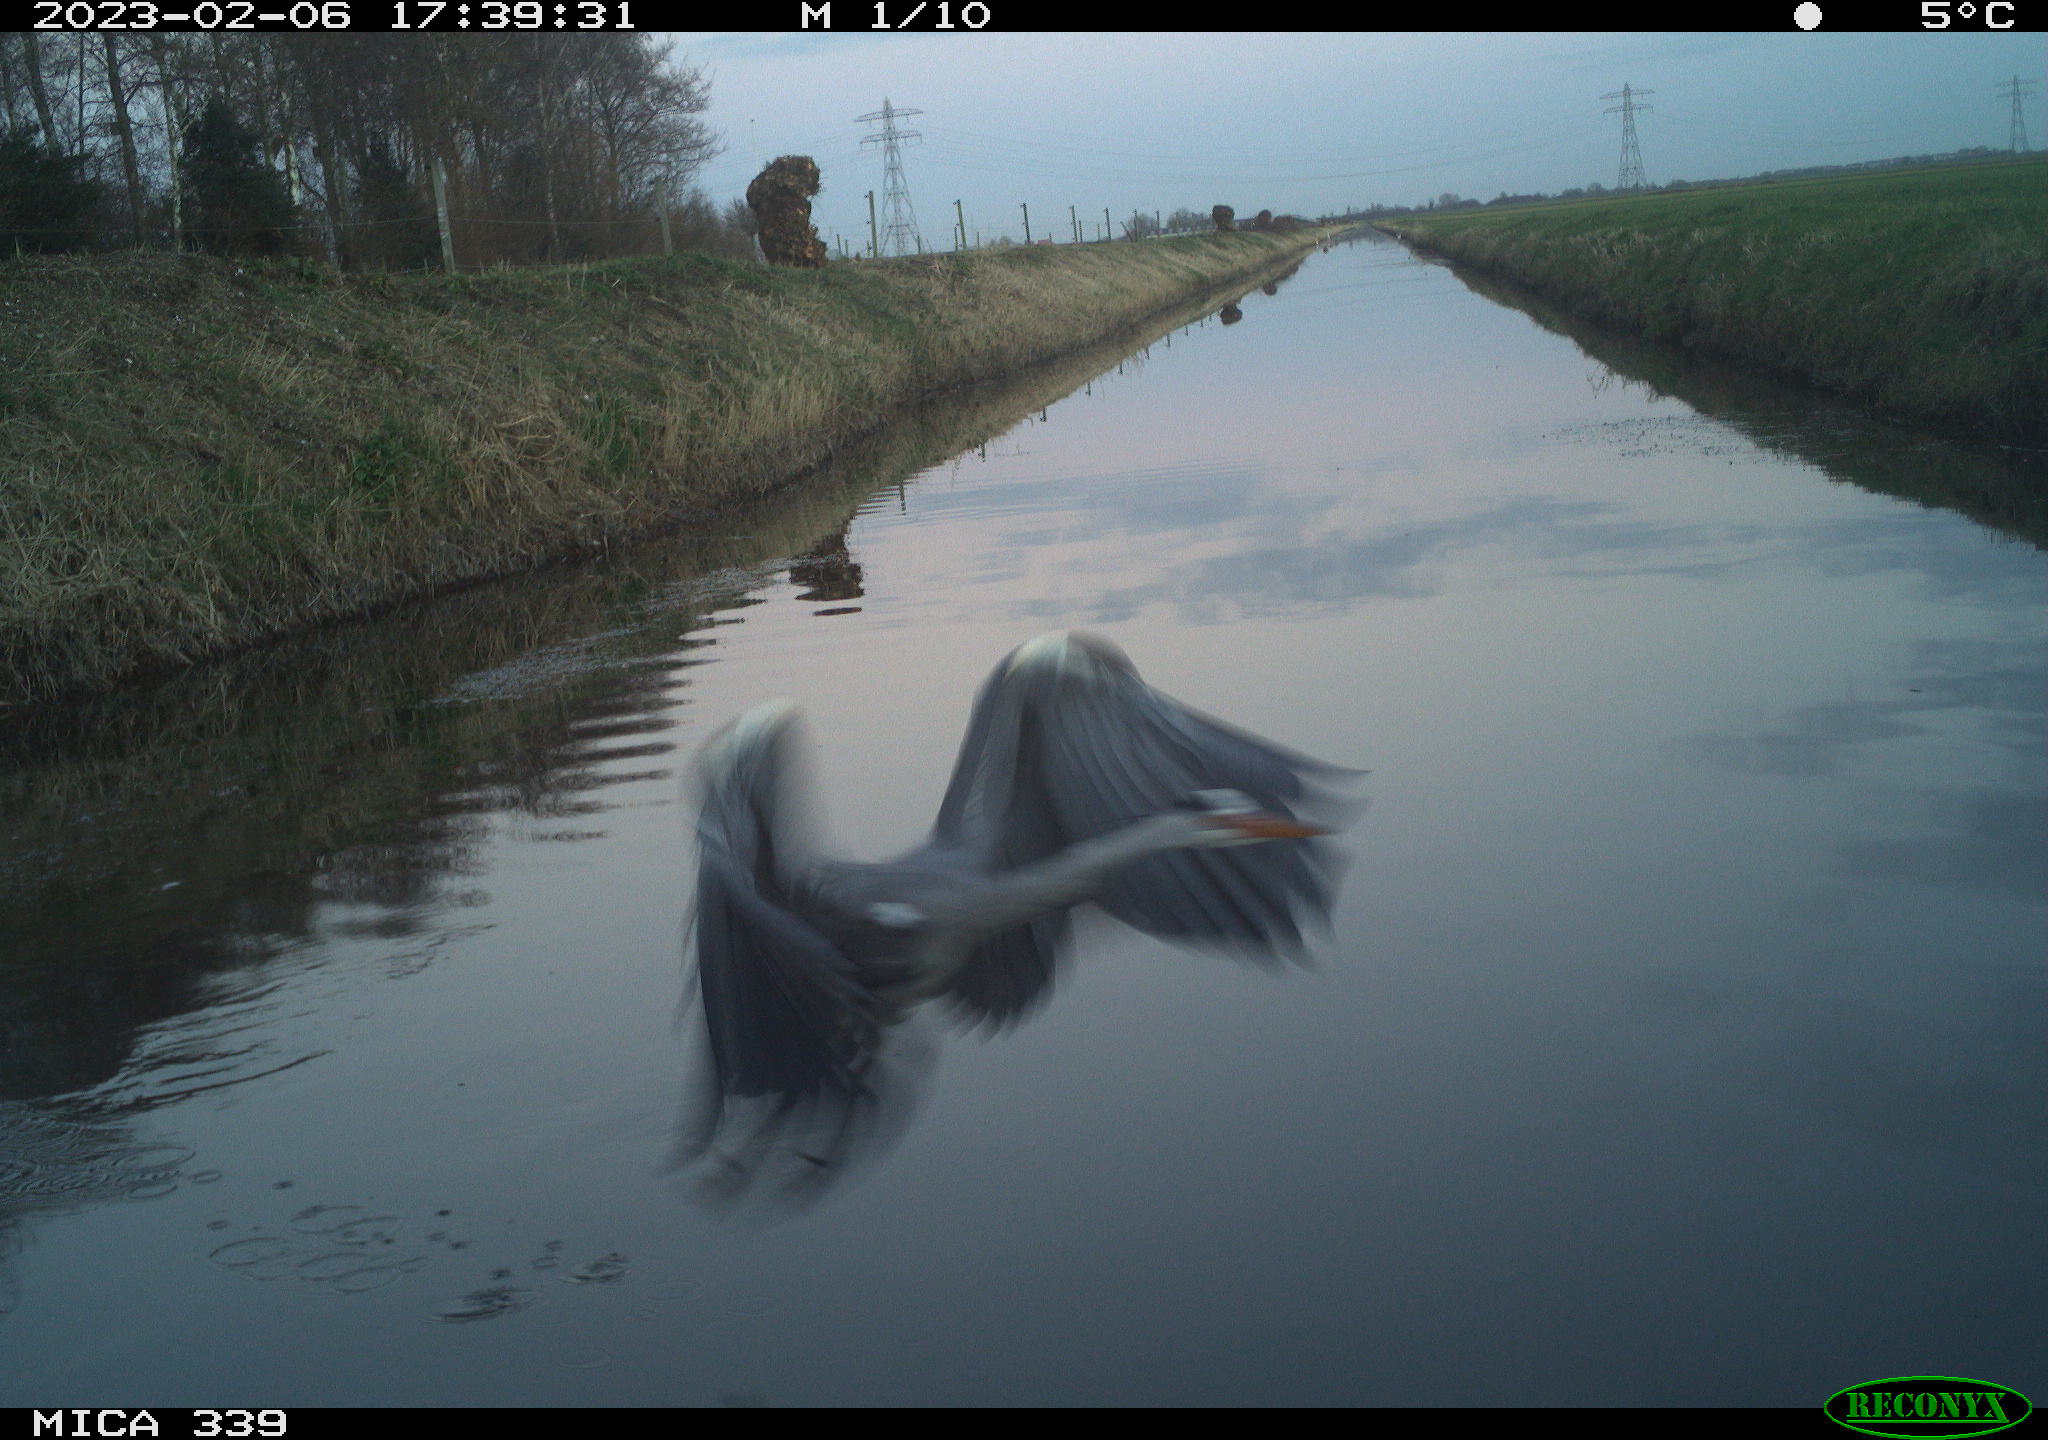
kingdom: Animalia
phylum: Chordata
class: Aves
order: Pelecaniformes
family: Ardeidae
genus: Ardea
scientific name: Ardea cinerea
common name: Grey heron
